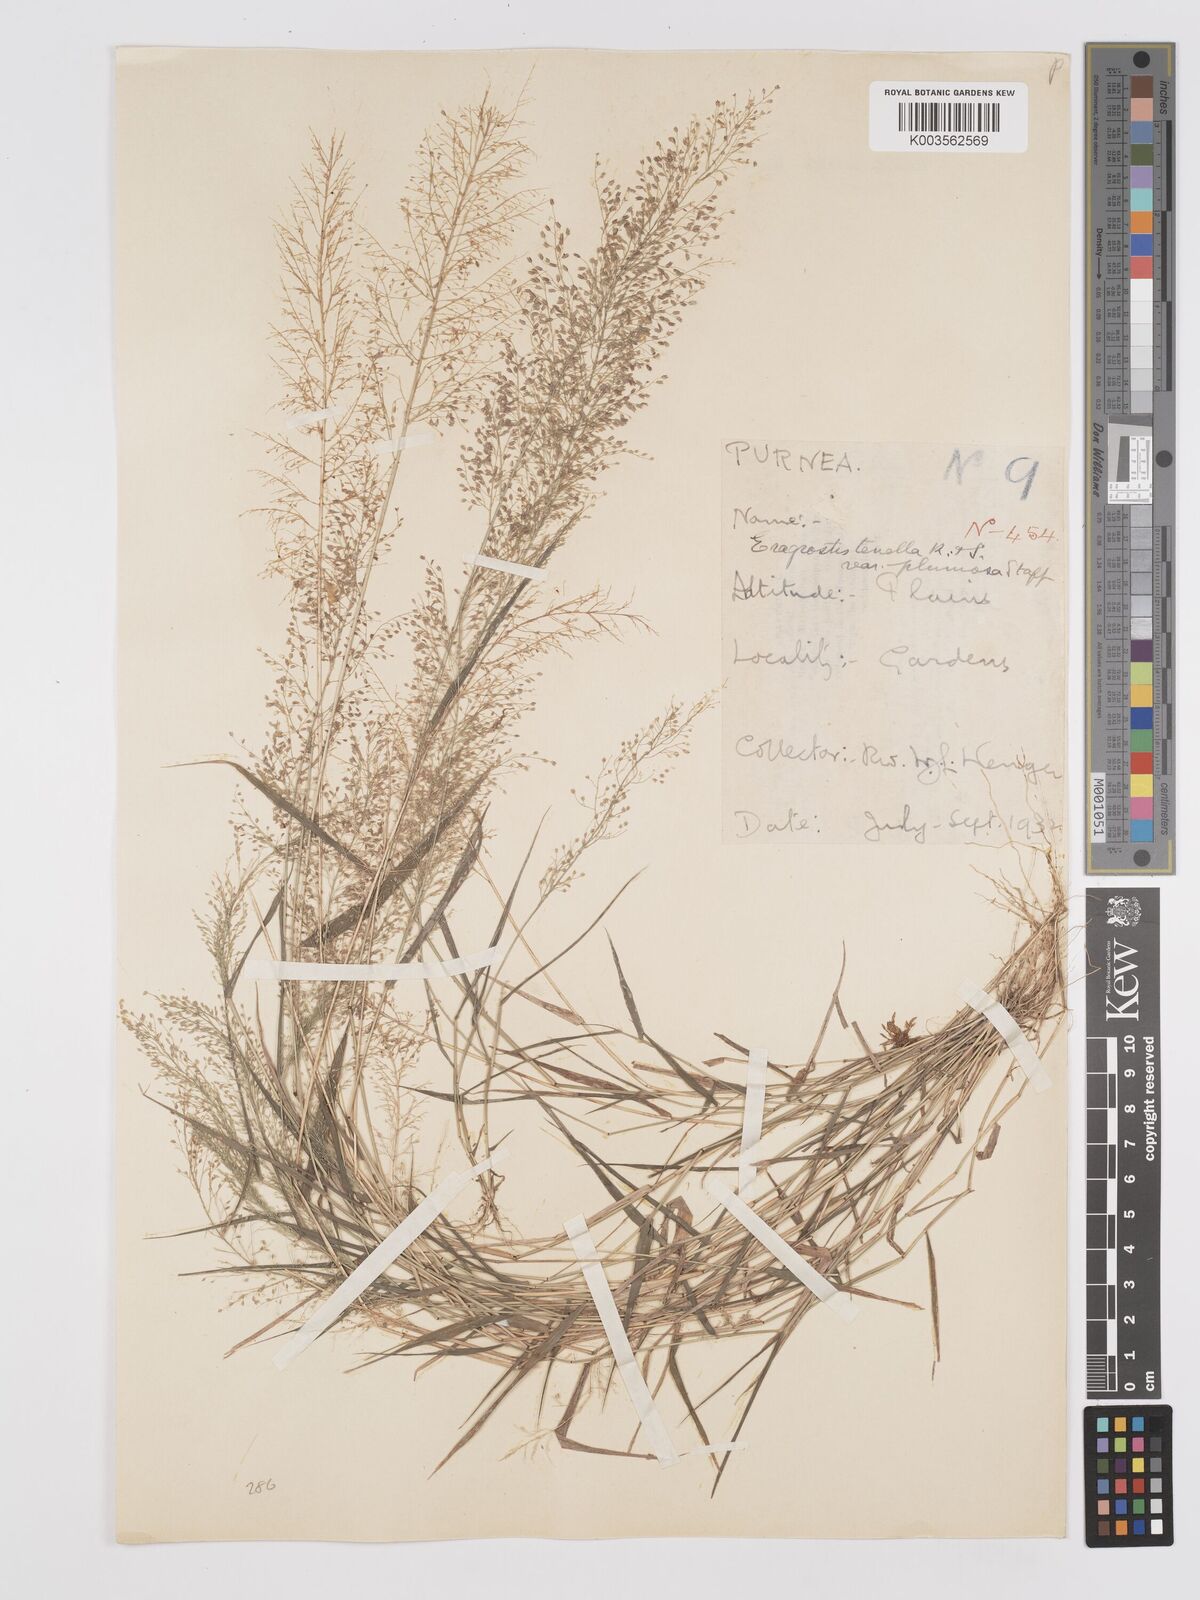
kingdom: Plantae
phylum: Tracheophyta
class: Liliopsida
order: Poales
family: Poaceae
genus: Eragrostis
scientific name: Eragrostis tenella
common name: Japanese lovegrass
